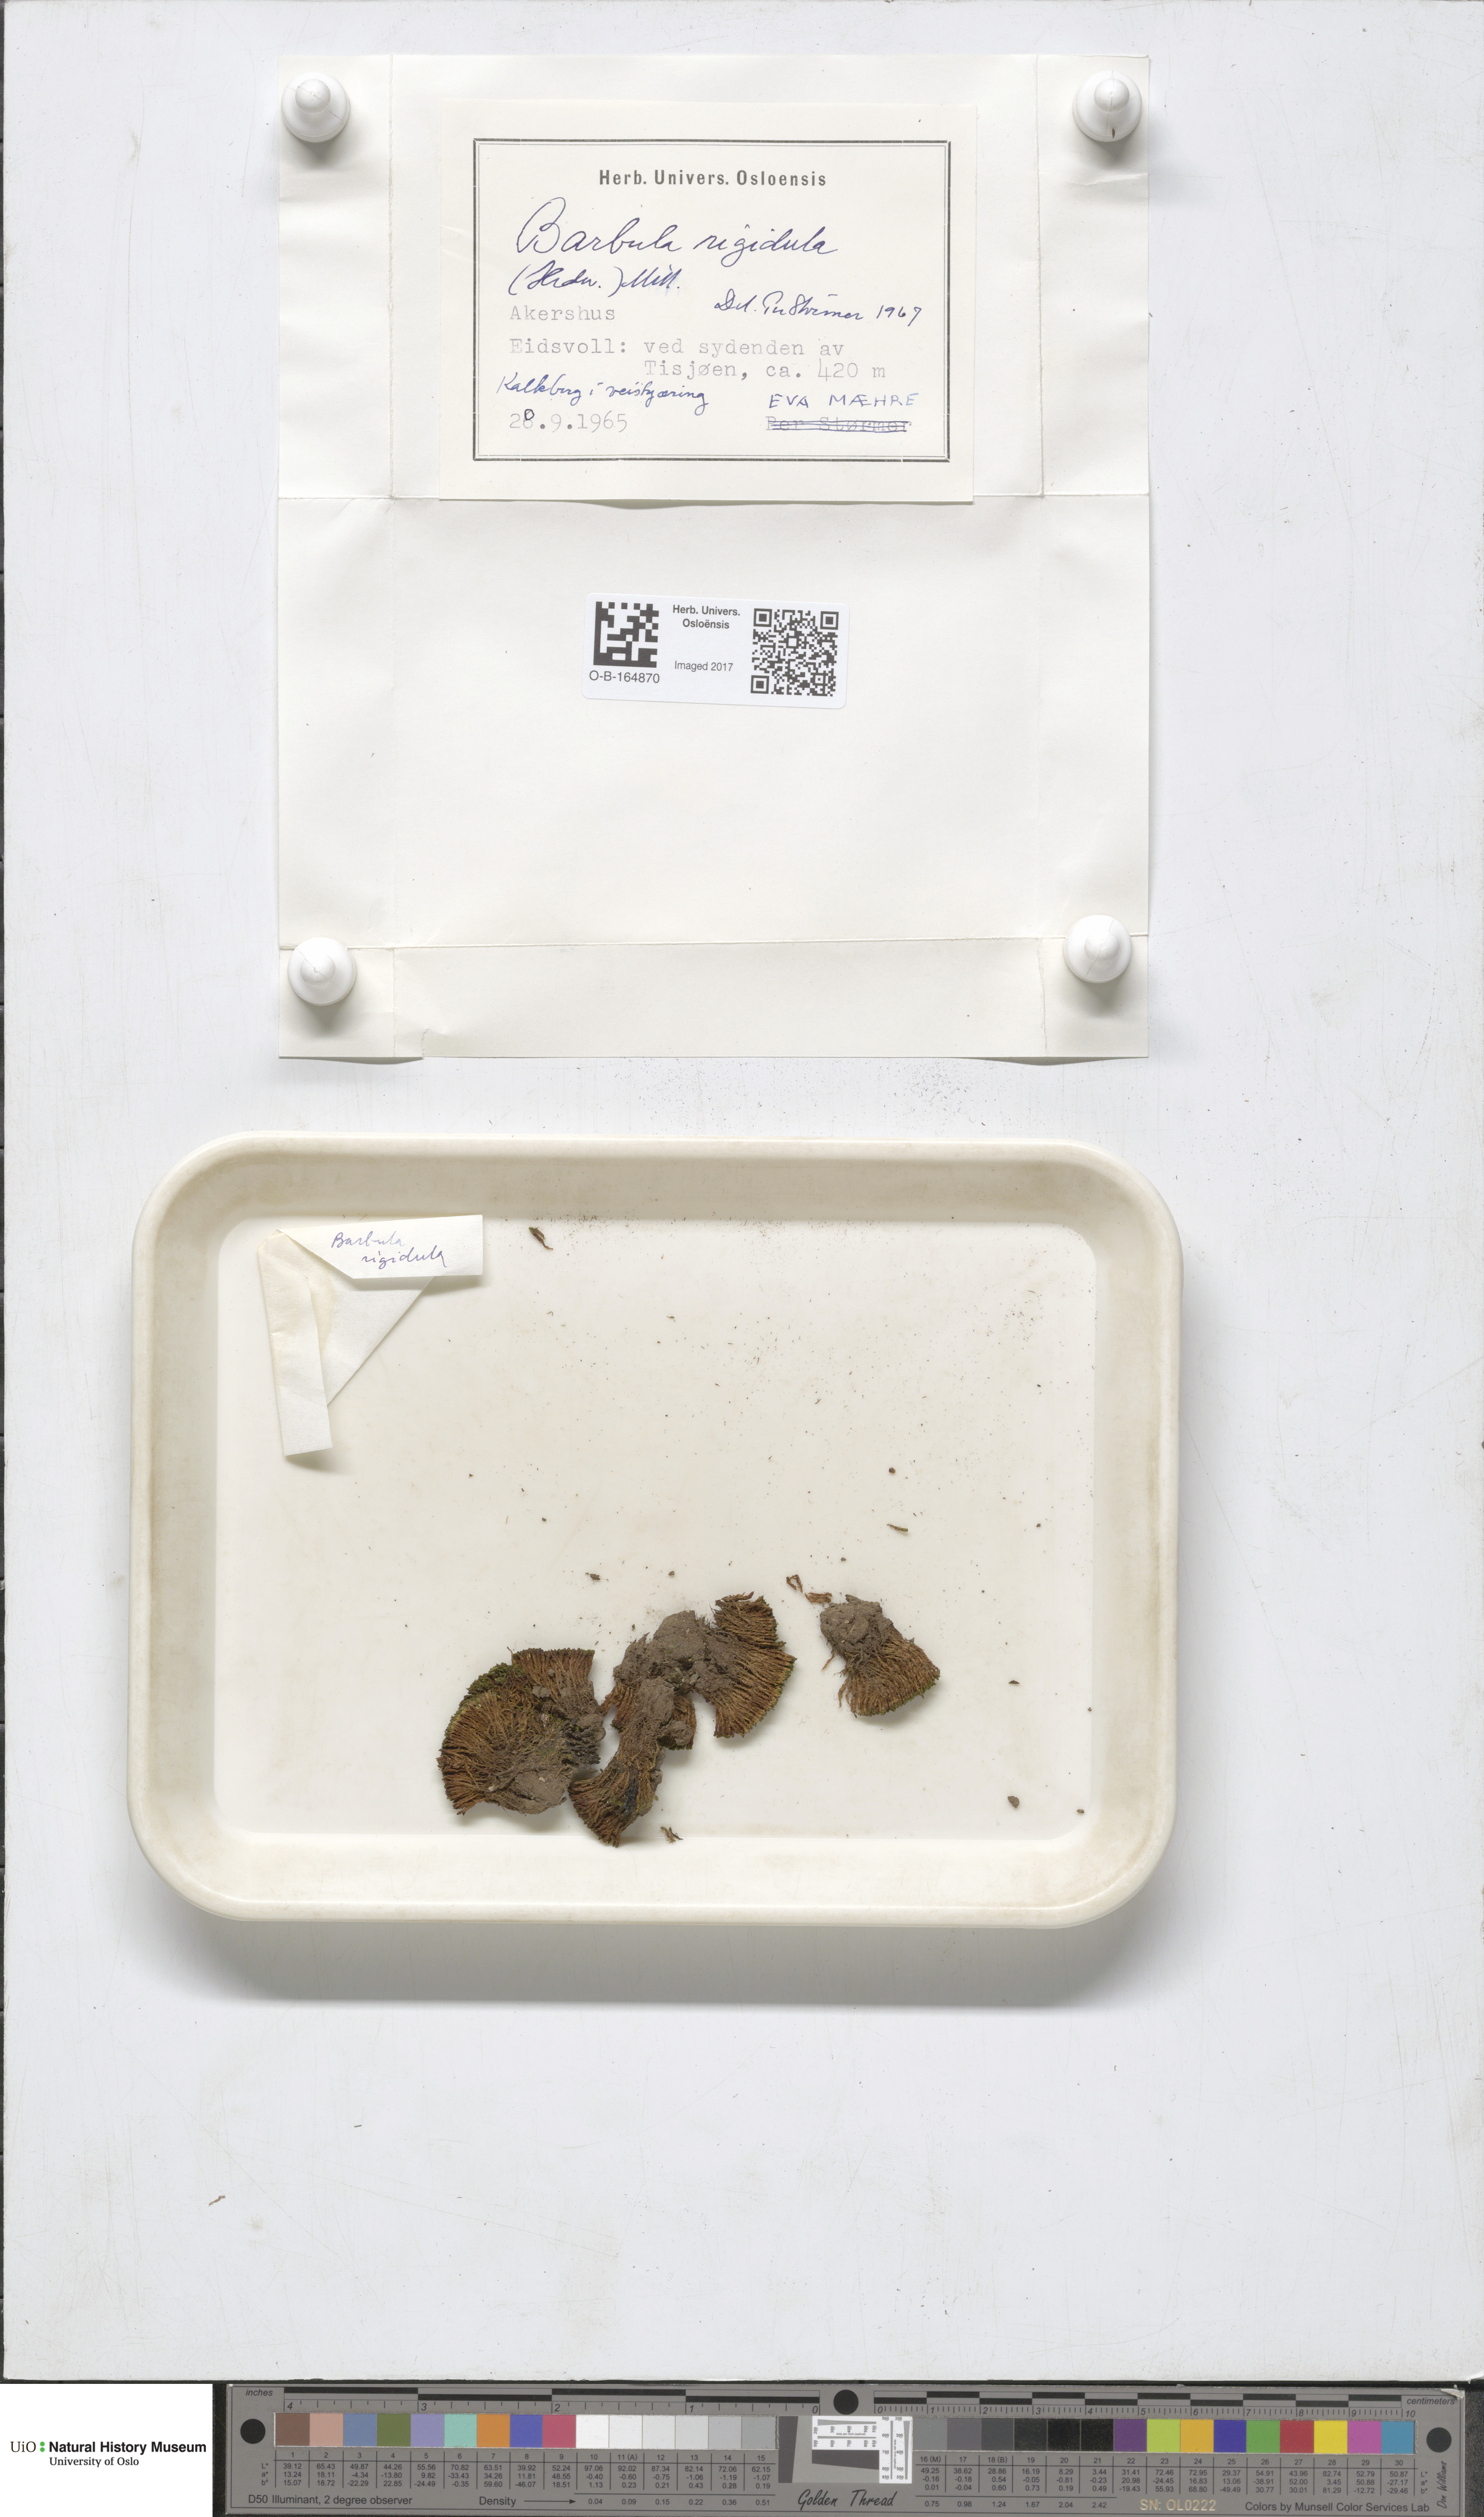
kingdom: Plantae
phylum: Bryophyta
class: Bryopsida
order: Pottiales
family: Pottiaceae
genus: Didymodon
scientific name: Didymodon rigidulus
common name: Rigid beard-moss
